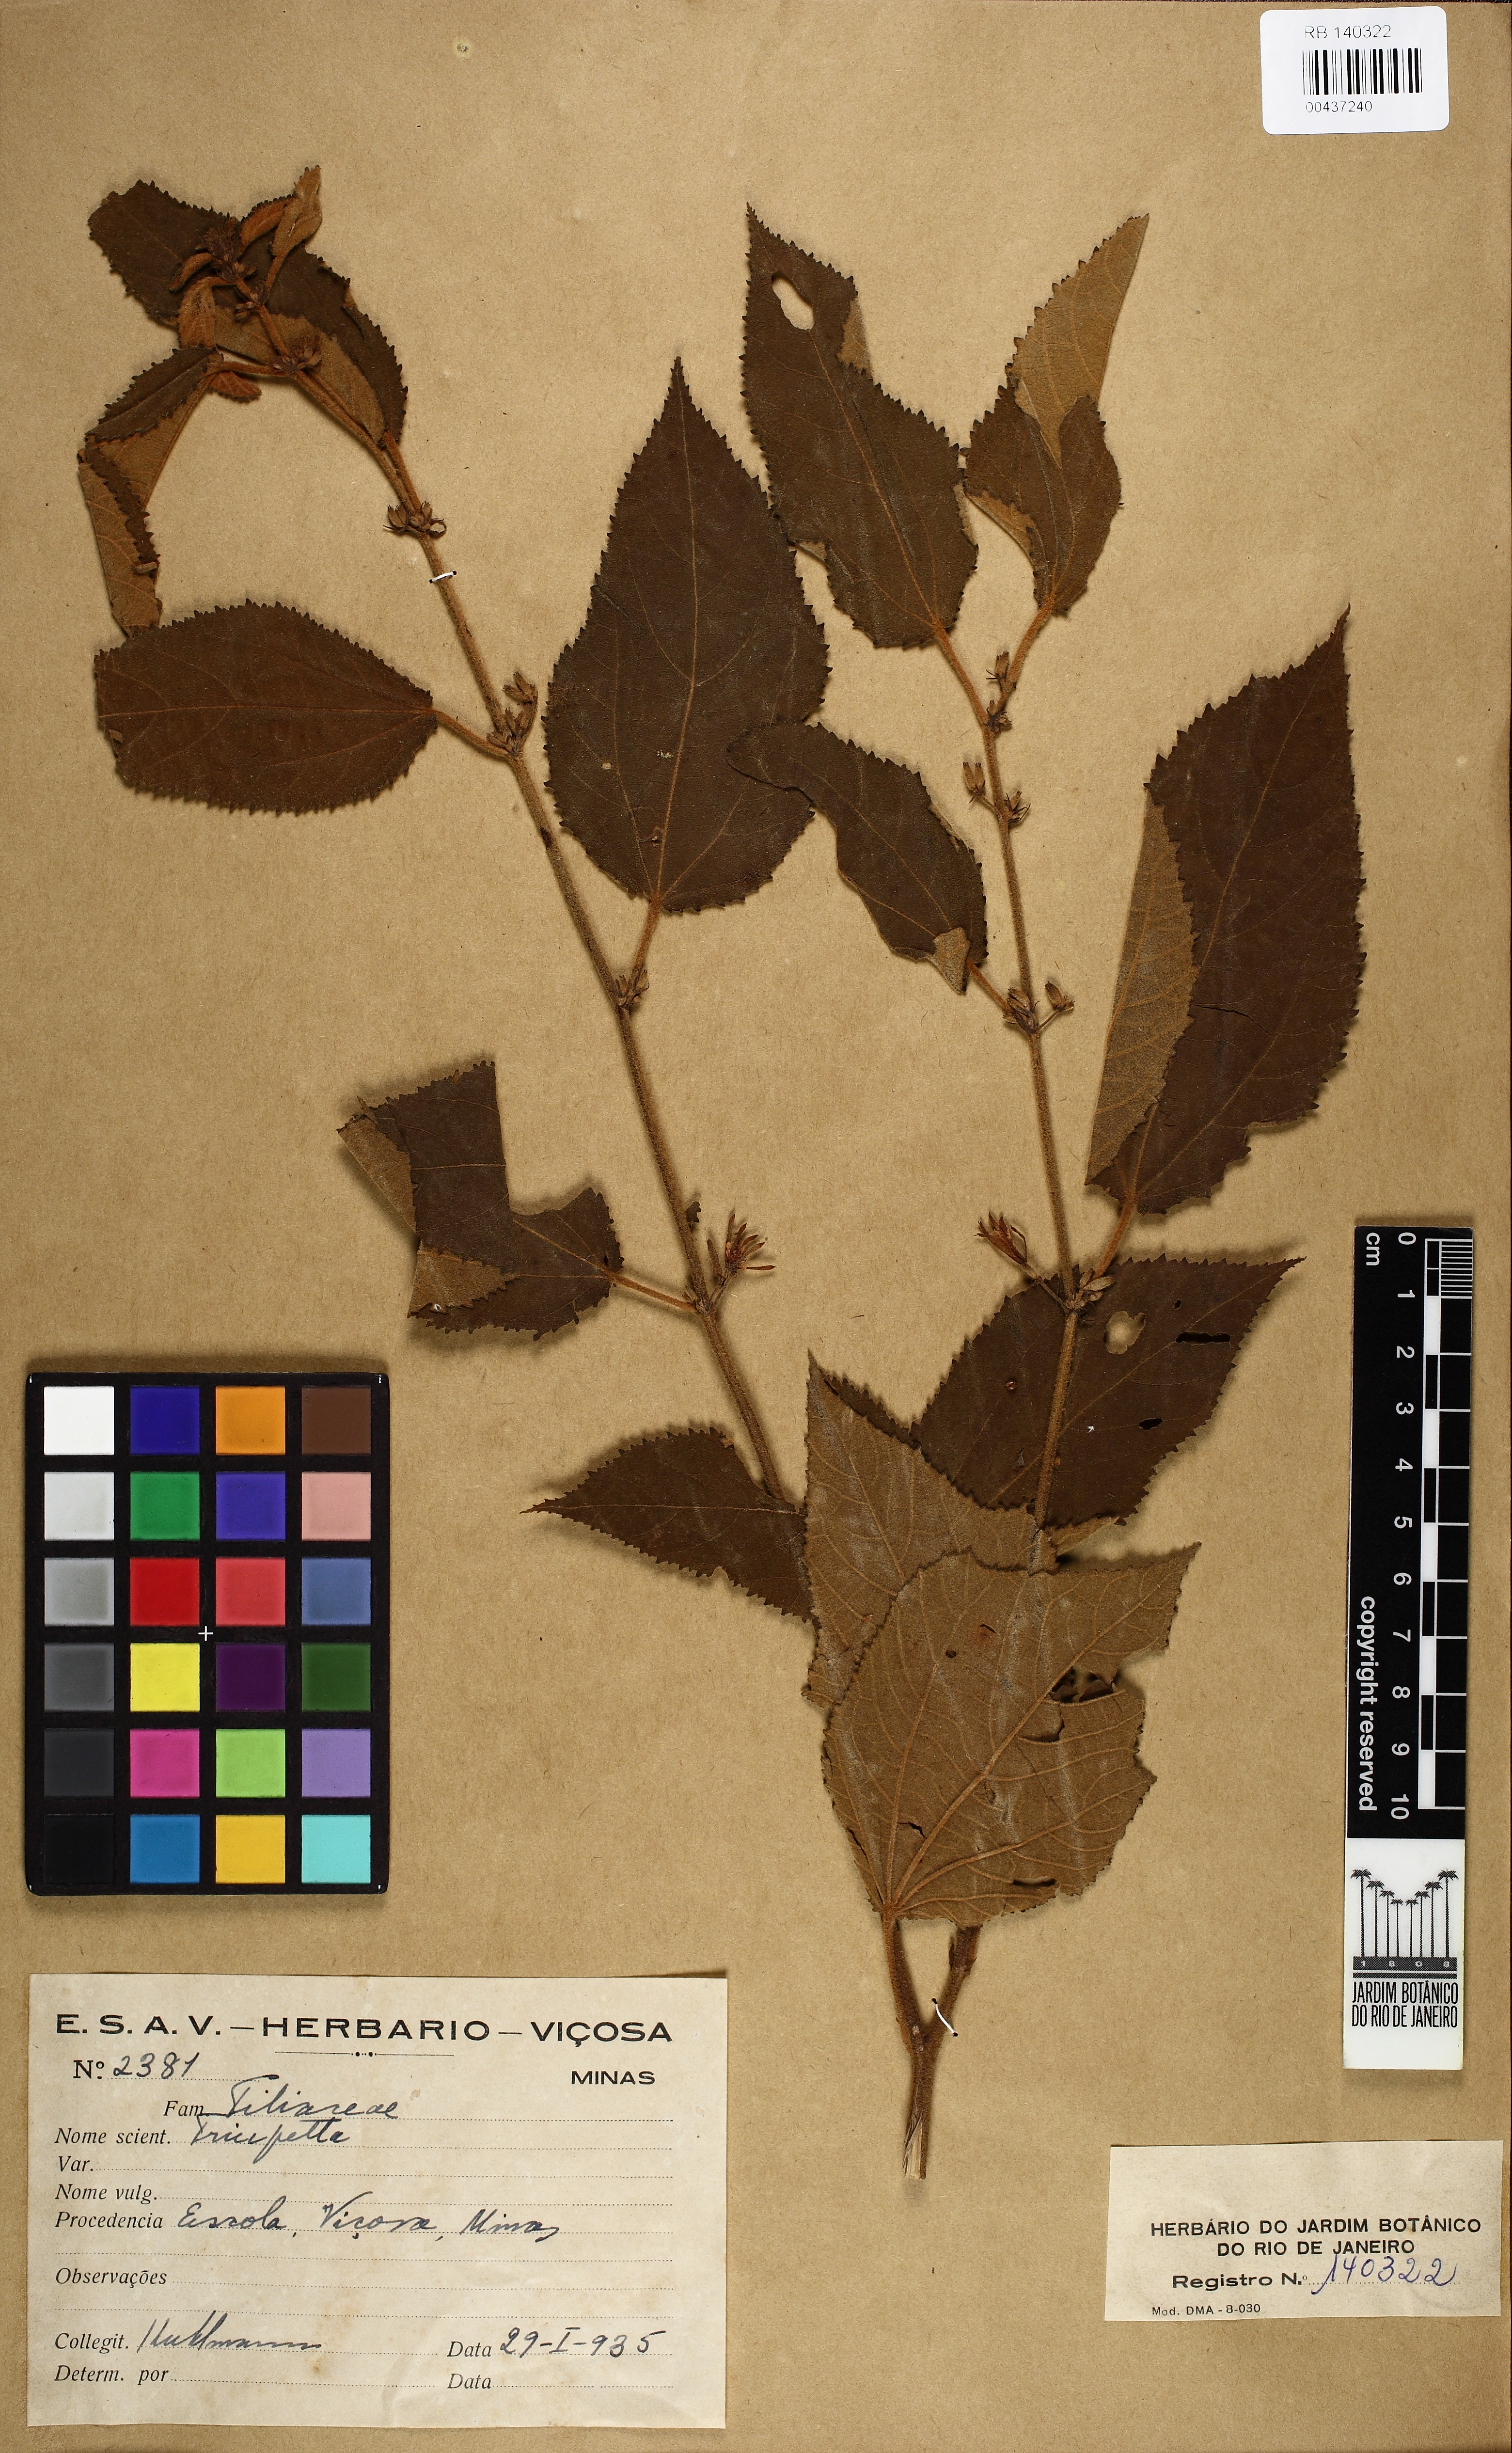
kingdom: Plantae
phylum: Tracheophyta
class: Magnoliopsida
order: Malvales
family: Malvaceae
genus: Triumfetta
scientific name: Triumfetta
